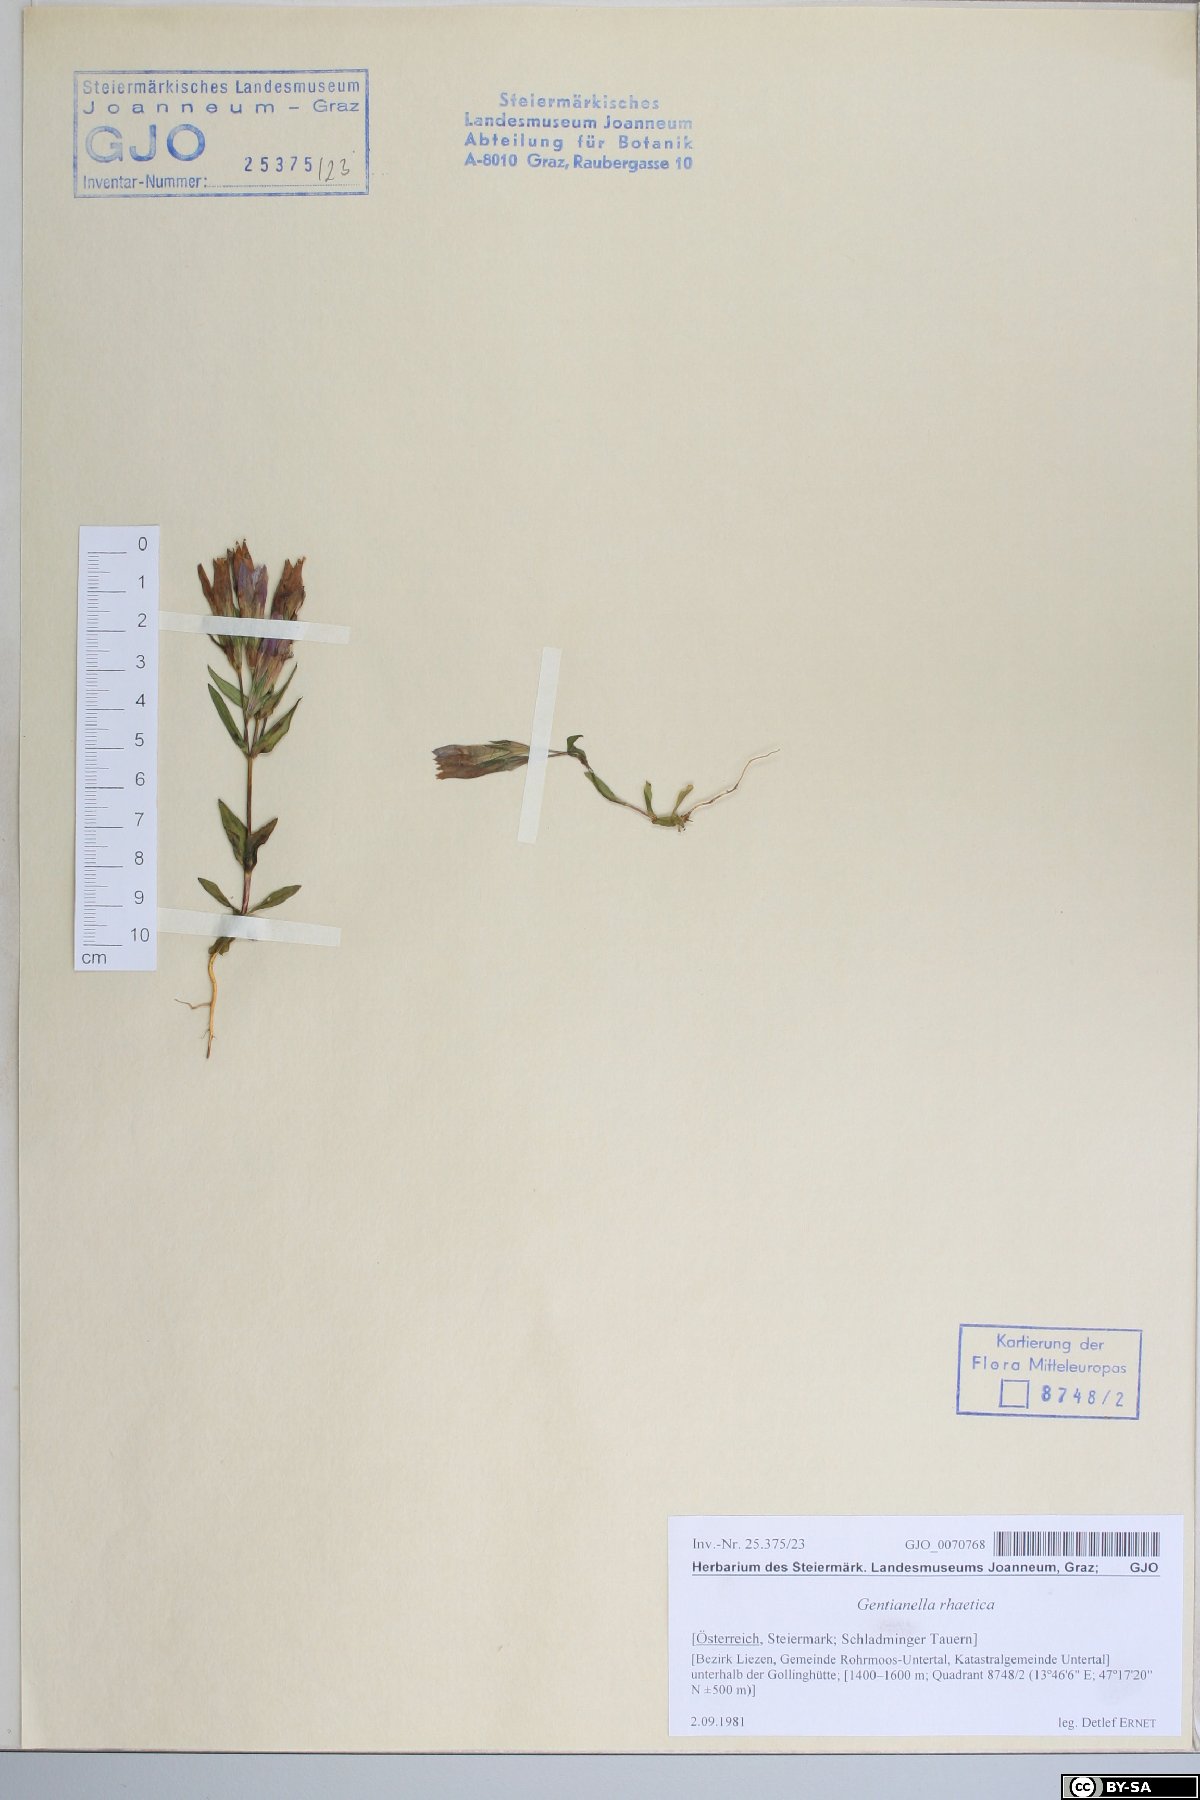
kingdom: Plantae
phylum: Tracheophyta
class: Magnoliopsida
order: Gentianales
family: Gentianaceae
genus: Gentianella
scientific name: Gentianella rhaetica
